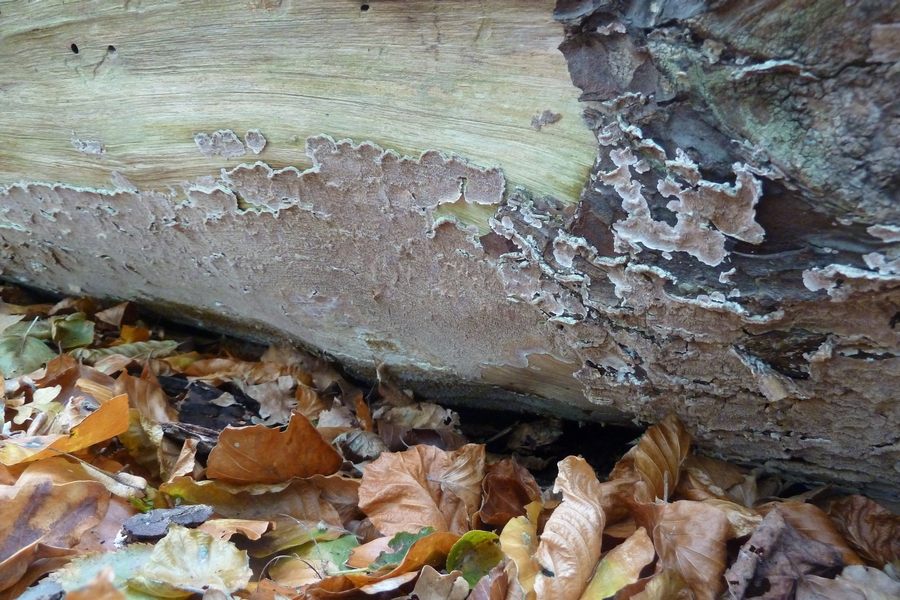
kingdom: Fungi
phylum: Basidiomycota
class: Agaricomycetes
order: Polyporales
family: Fomitopsidaceae
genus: Antrodia
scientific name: Antrodia sinuosa
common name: tømmer-sejporesvamp
